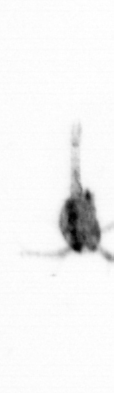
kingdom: Animalia
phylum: Arthropoda
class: Copepoda
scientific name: Copepoda
